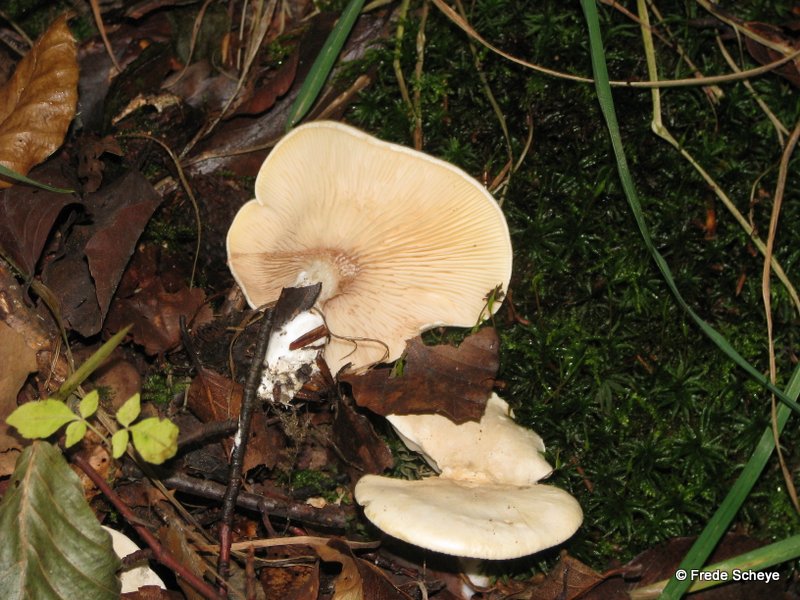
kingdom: Fungi
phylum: Basidiomycota
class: Agaricomycetes
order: Agaricales
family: Entolomataceae
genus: Clitopilus
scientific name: Clitopilus prunulus
